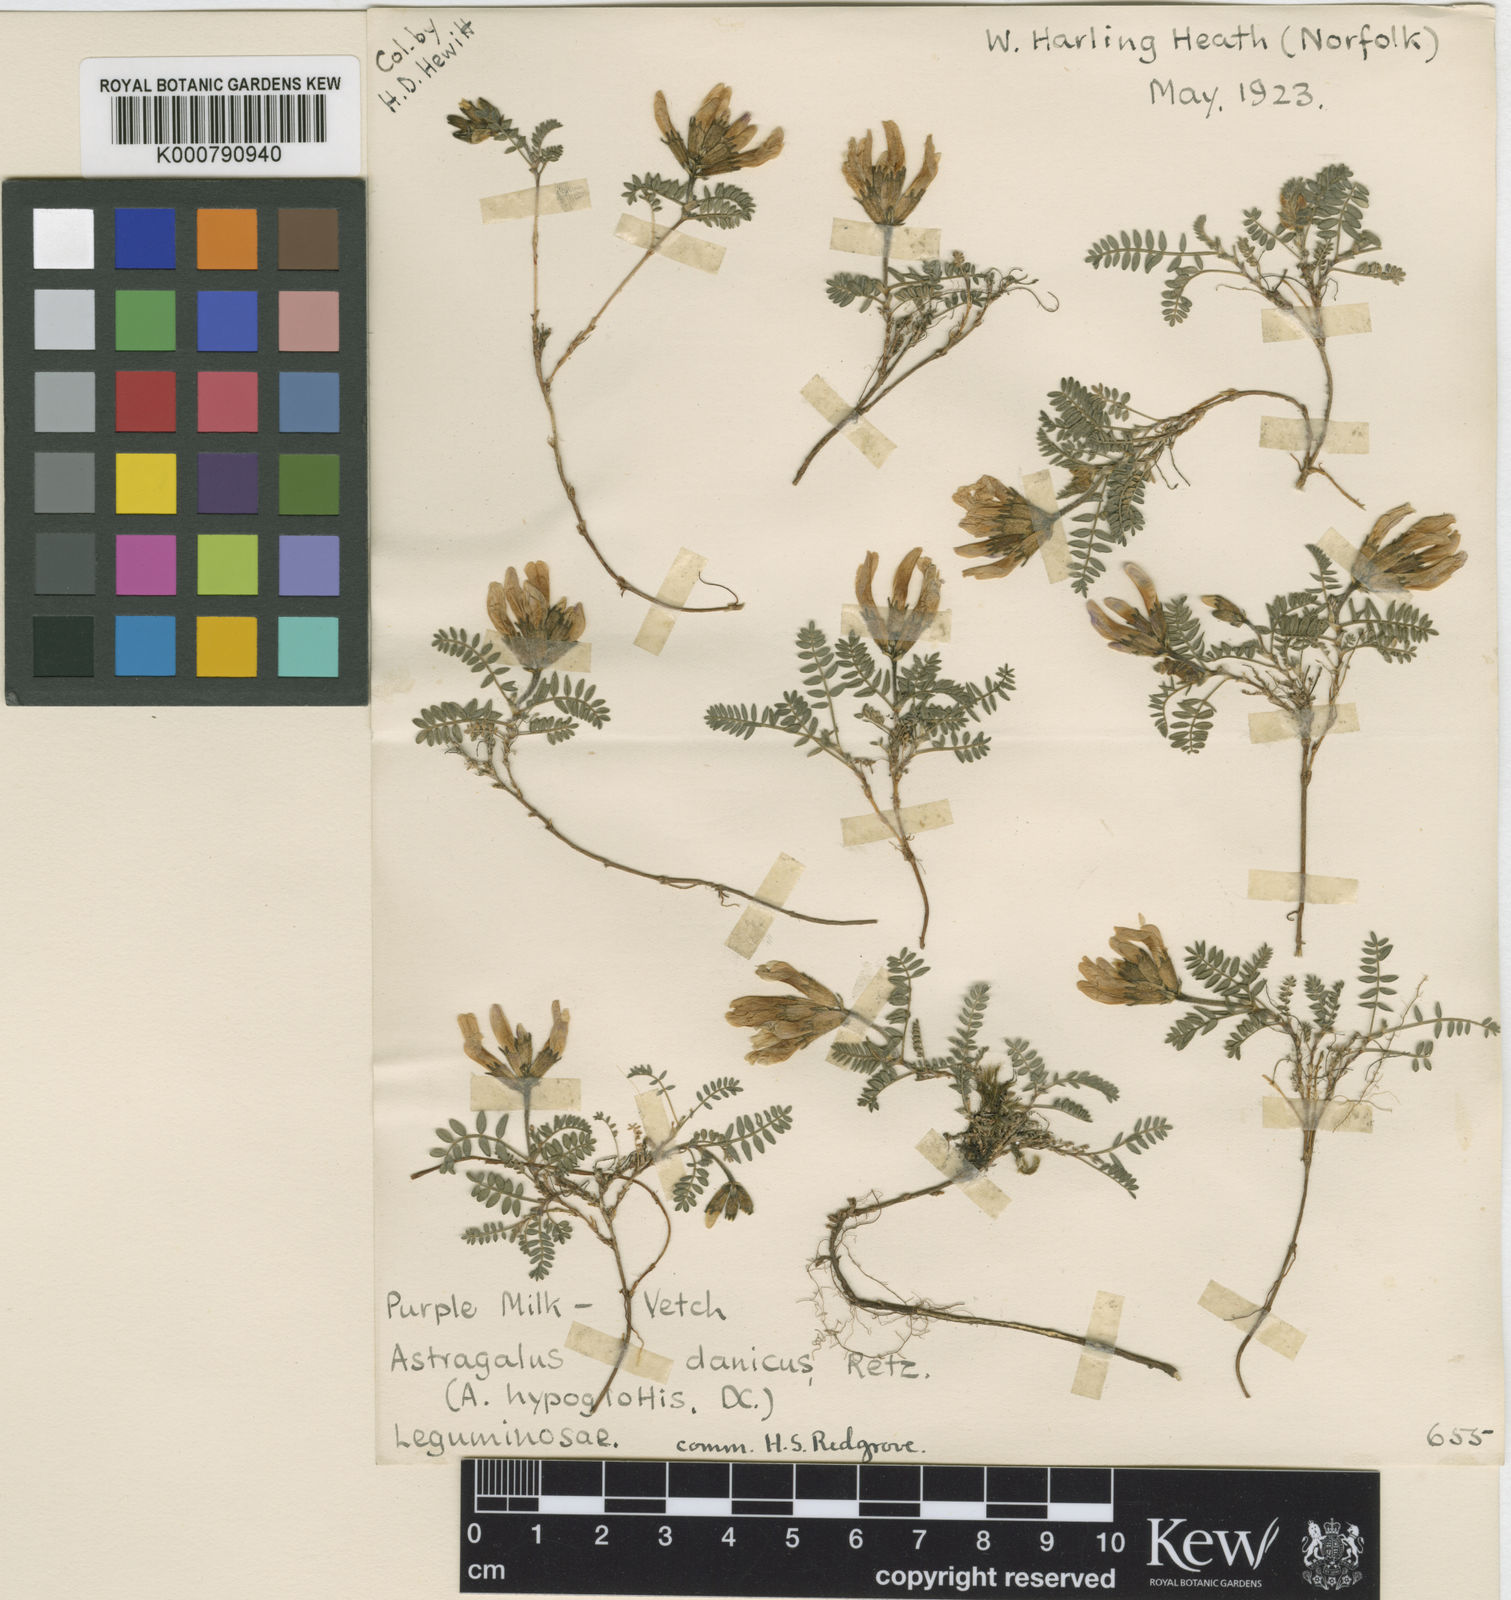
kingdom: Plantae
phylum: Tracheophyta
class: Magnoliopsida
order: Fabales
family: Fabaceae
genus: Astragalus
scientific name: Astragalus danicus
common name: Purple milk-vetch
